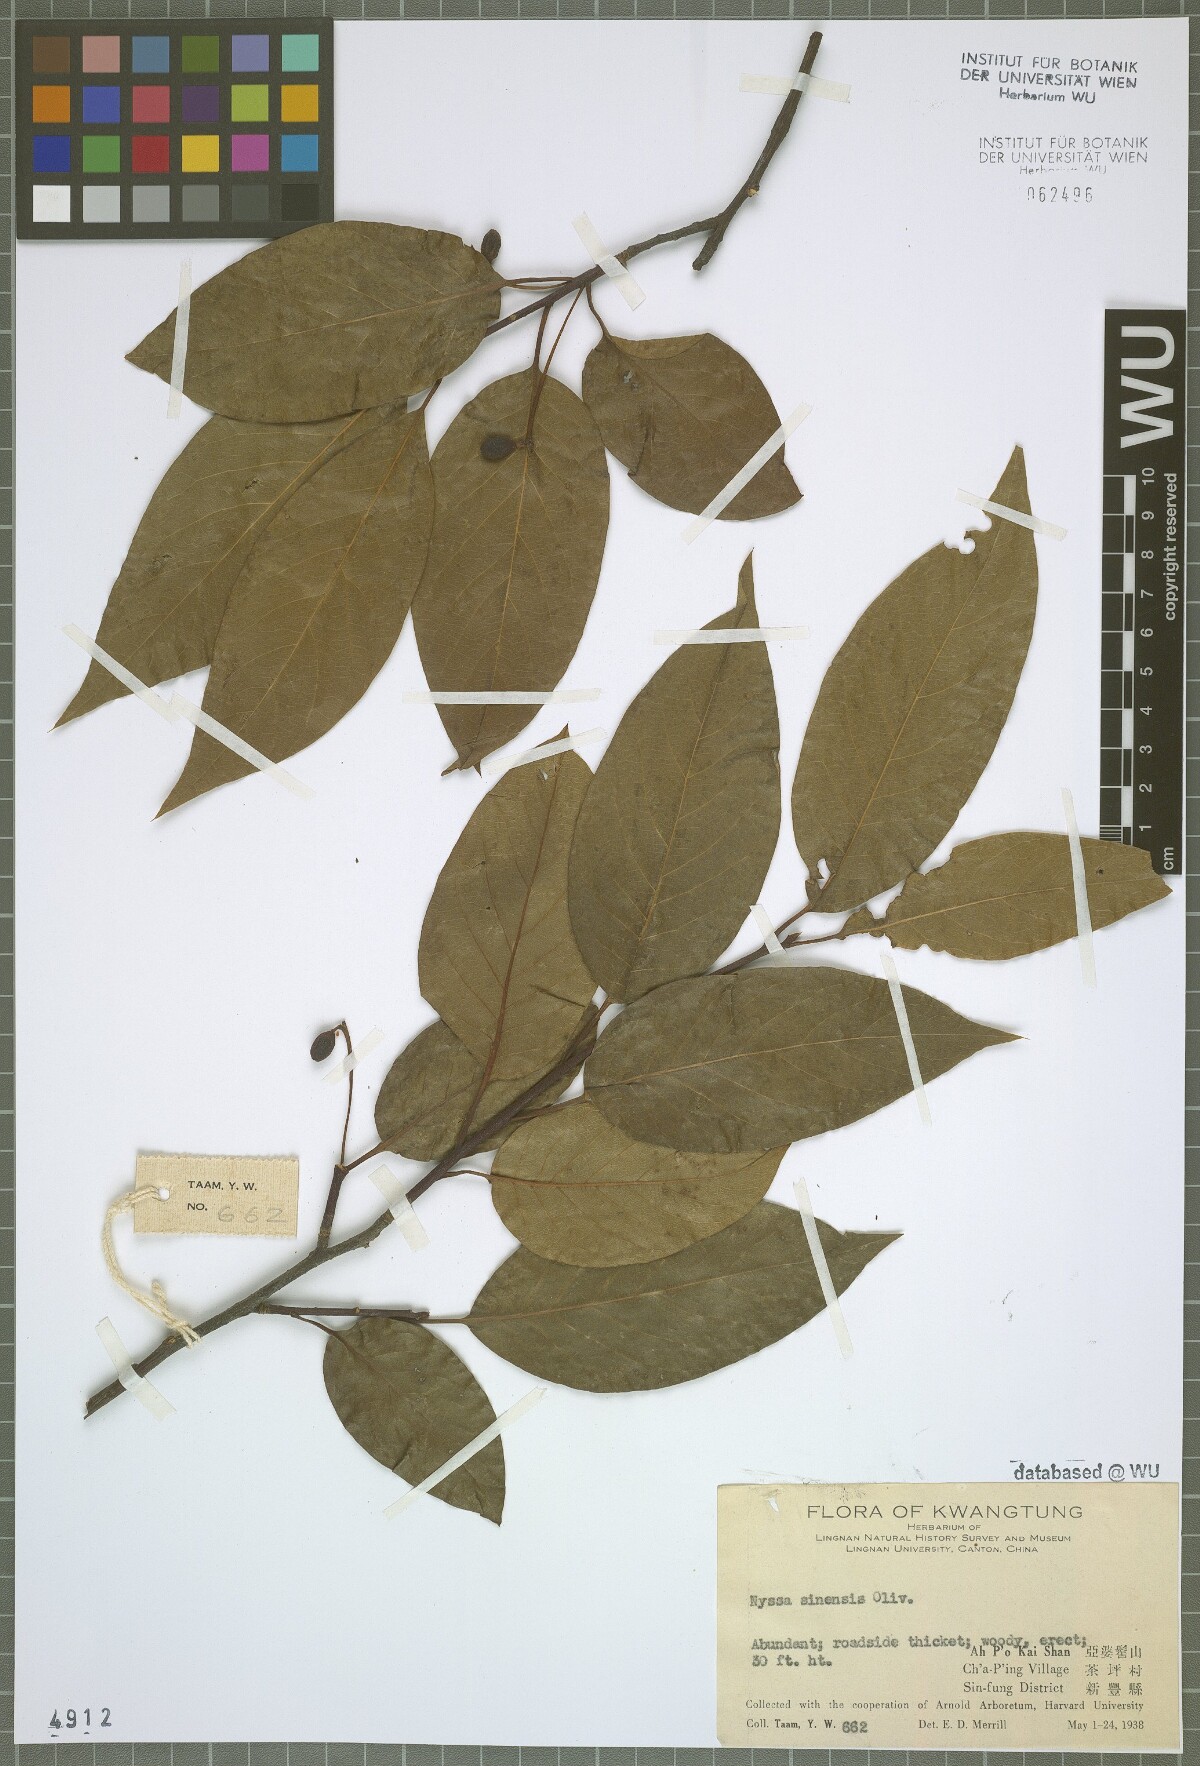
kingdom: Plantae
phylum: Tracheophyta
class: Magnoliopsida
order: Cornales
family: Nyssaceae
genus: Nyssa
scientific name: Nyssa sinensis
